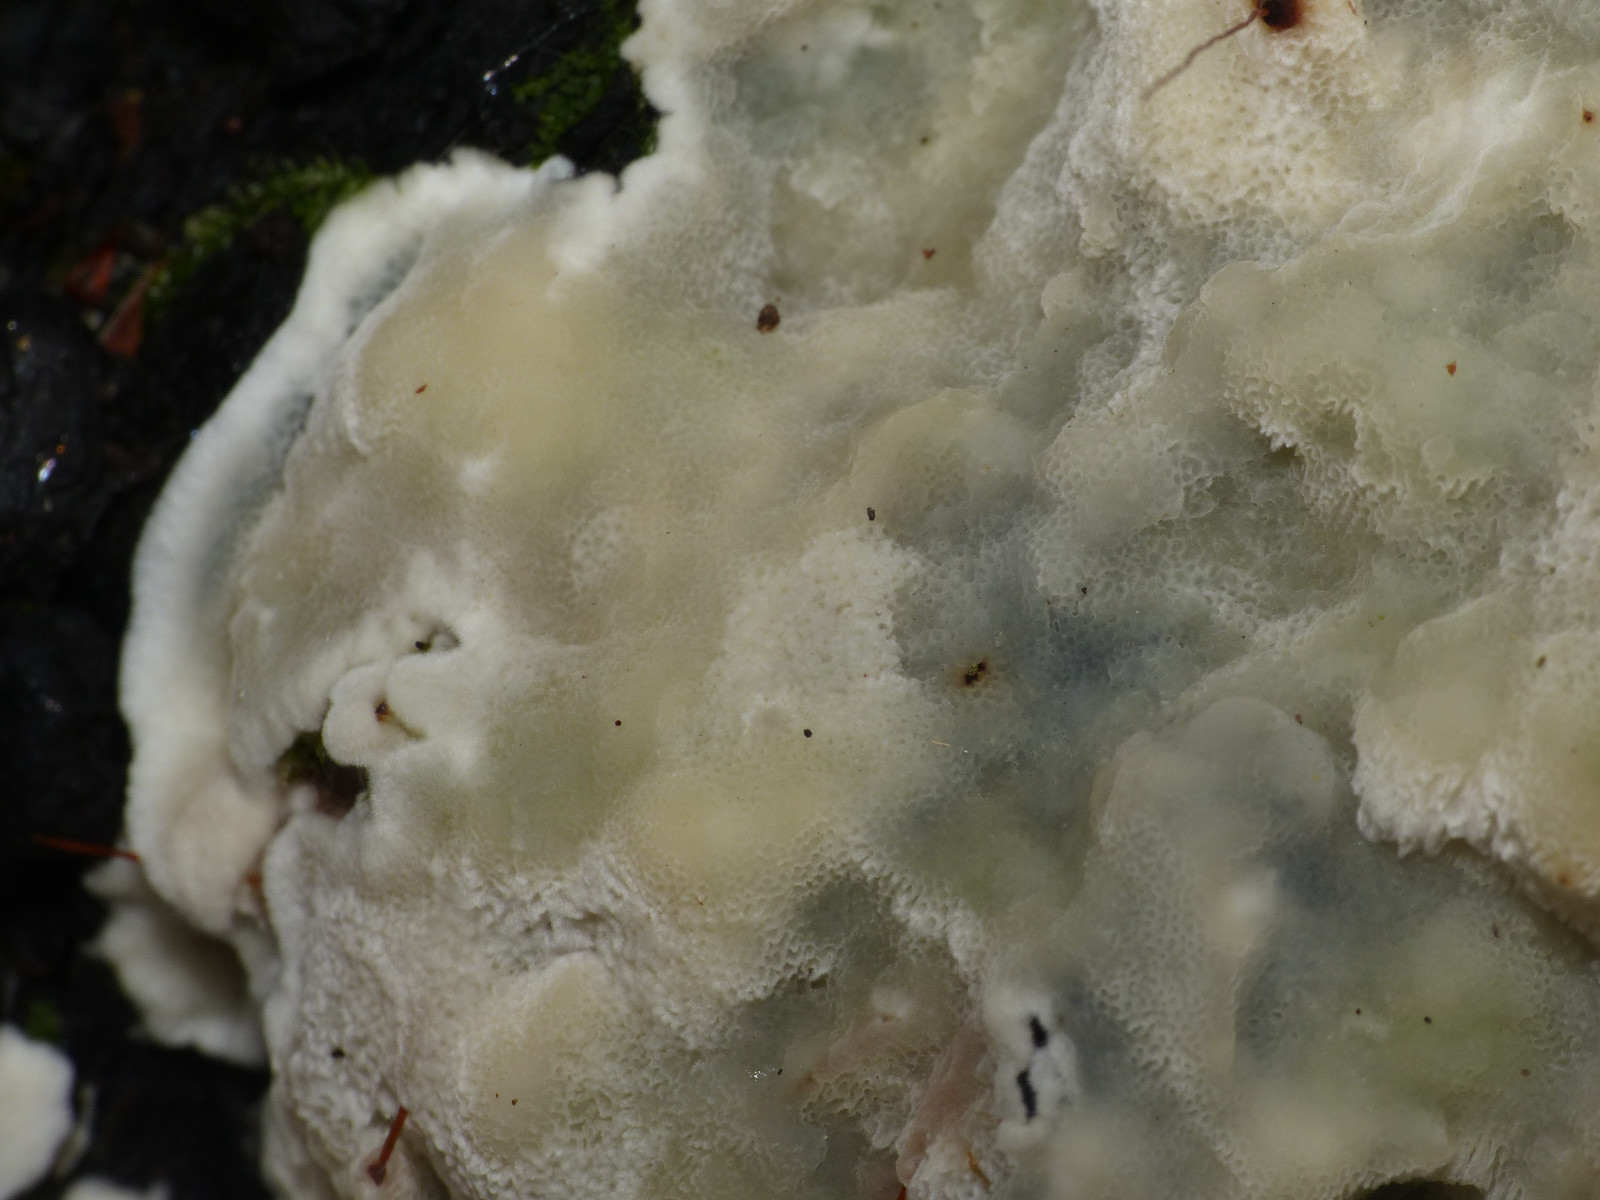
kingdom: Fungi
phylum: Basidiomycota
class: Agaricomycetes
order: Polyporales
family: Meruliaceae
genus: Physisporinus
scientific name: Physisporinus vitreus
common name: mastesvamp
